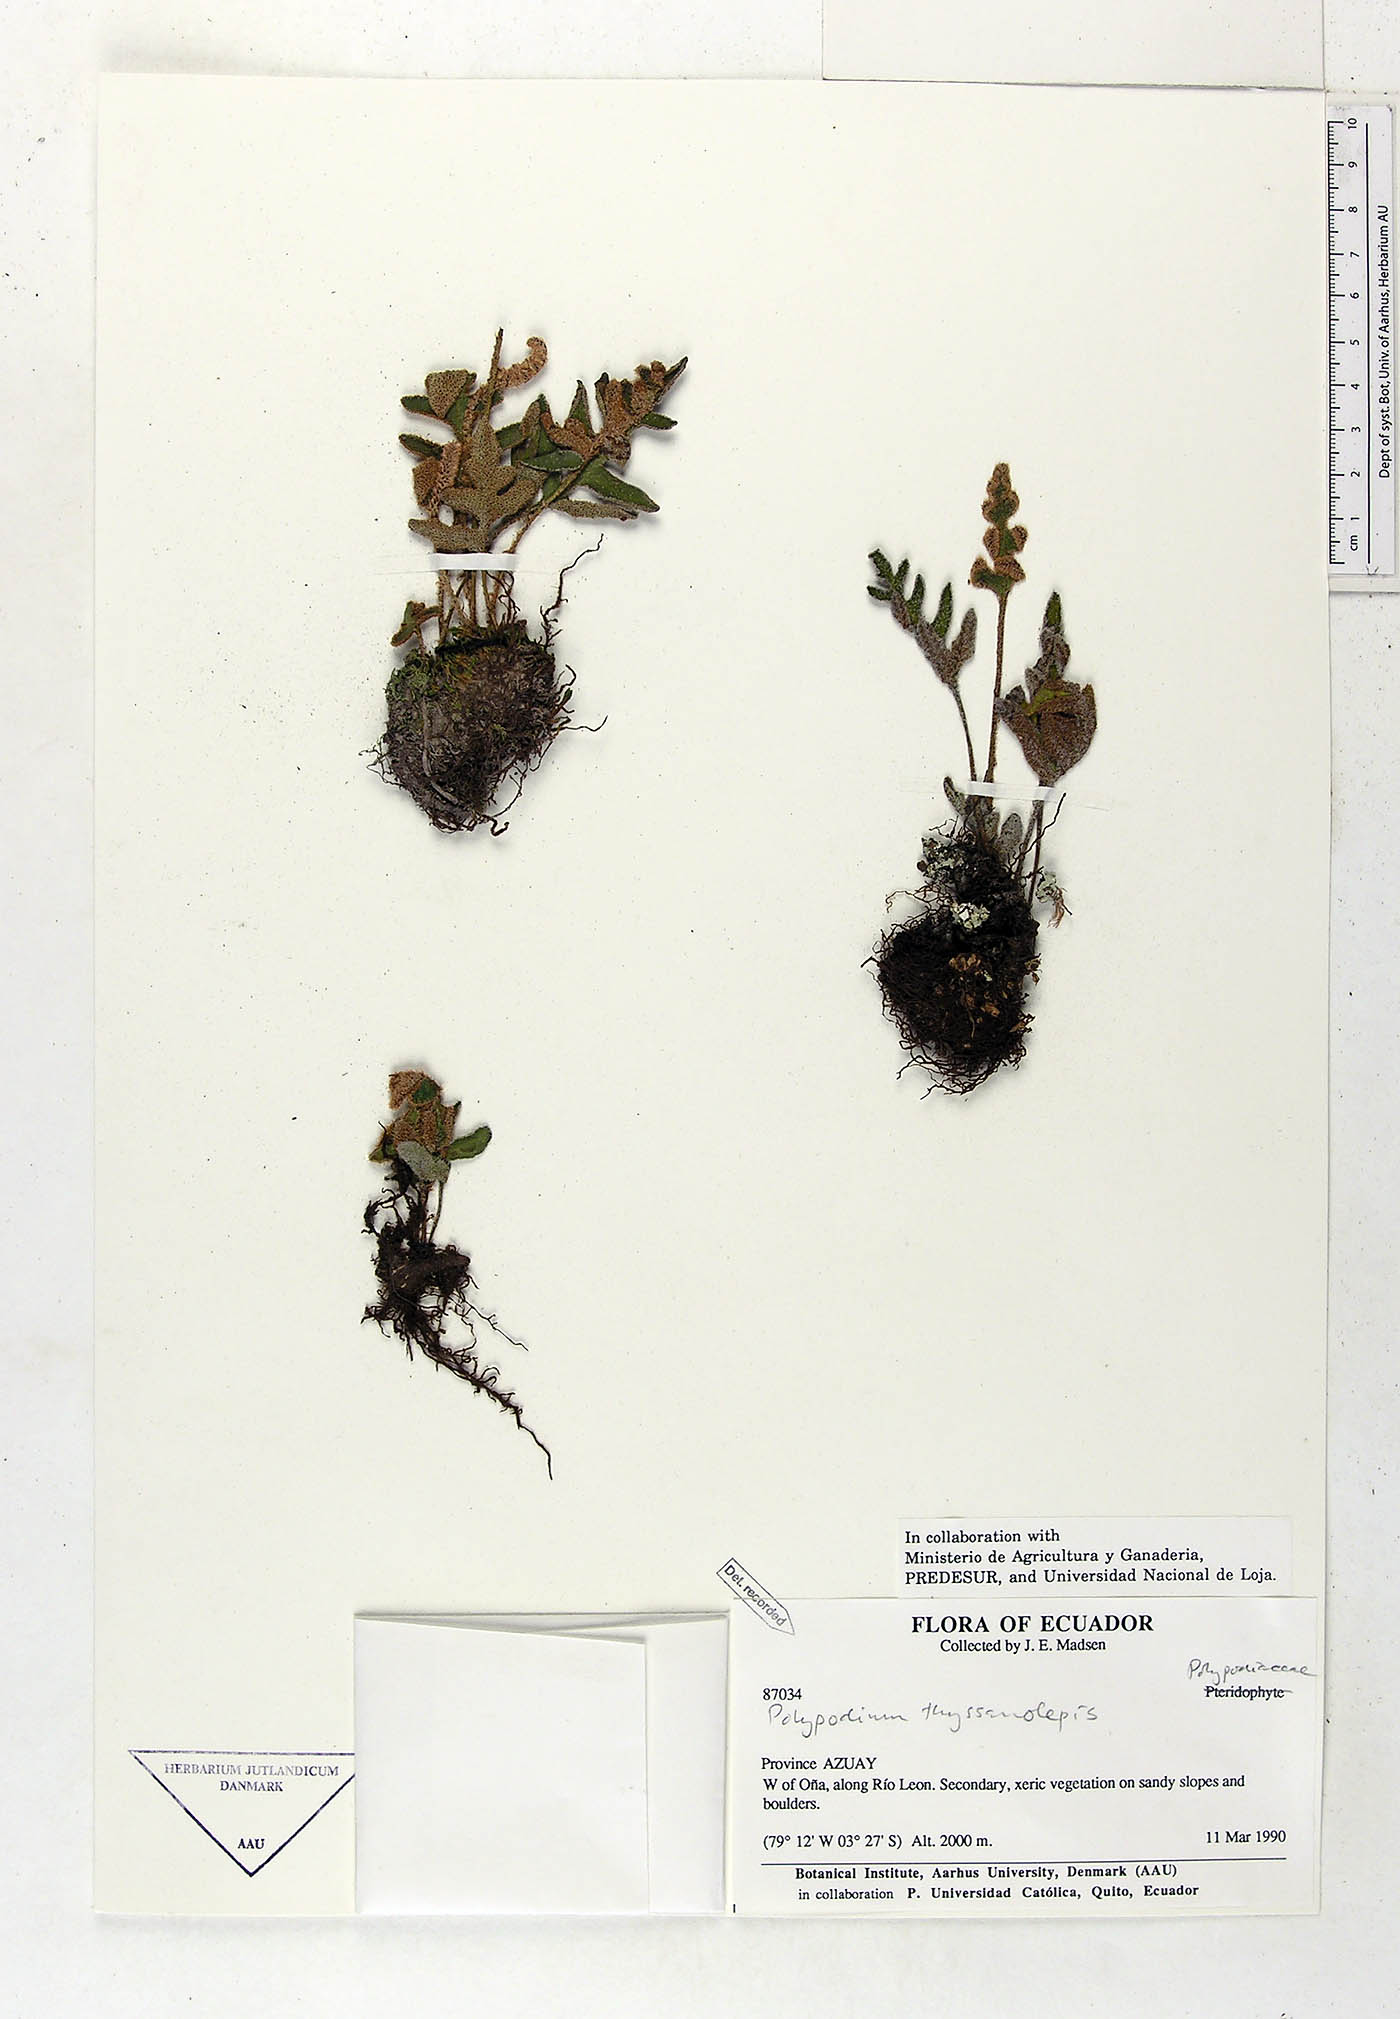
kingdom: Plantae
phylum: Tracheophyta
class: Polypodiopsida
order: Polypodiales
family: Polypodiaceae
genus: Pleopeltis
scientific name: Pleopeltis thyssanolepis
